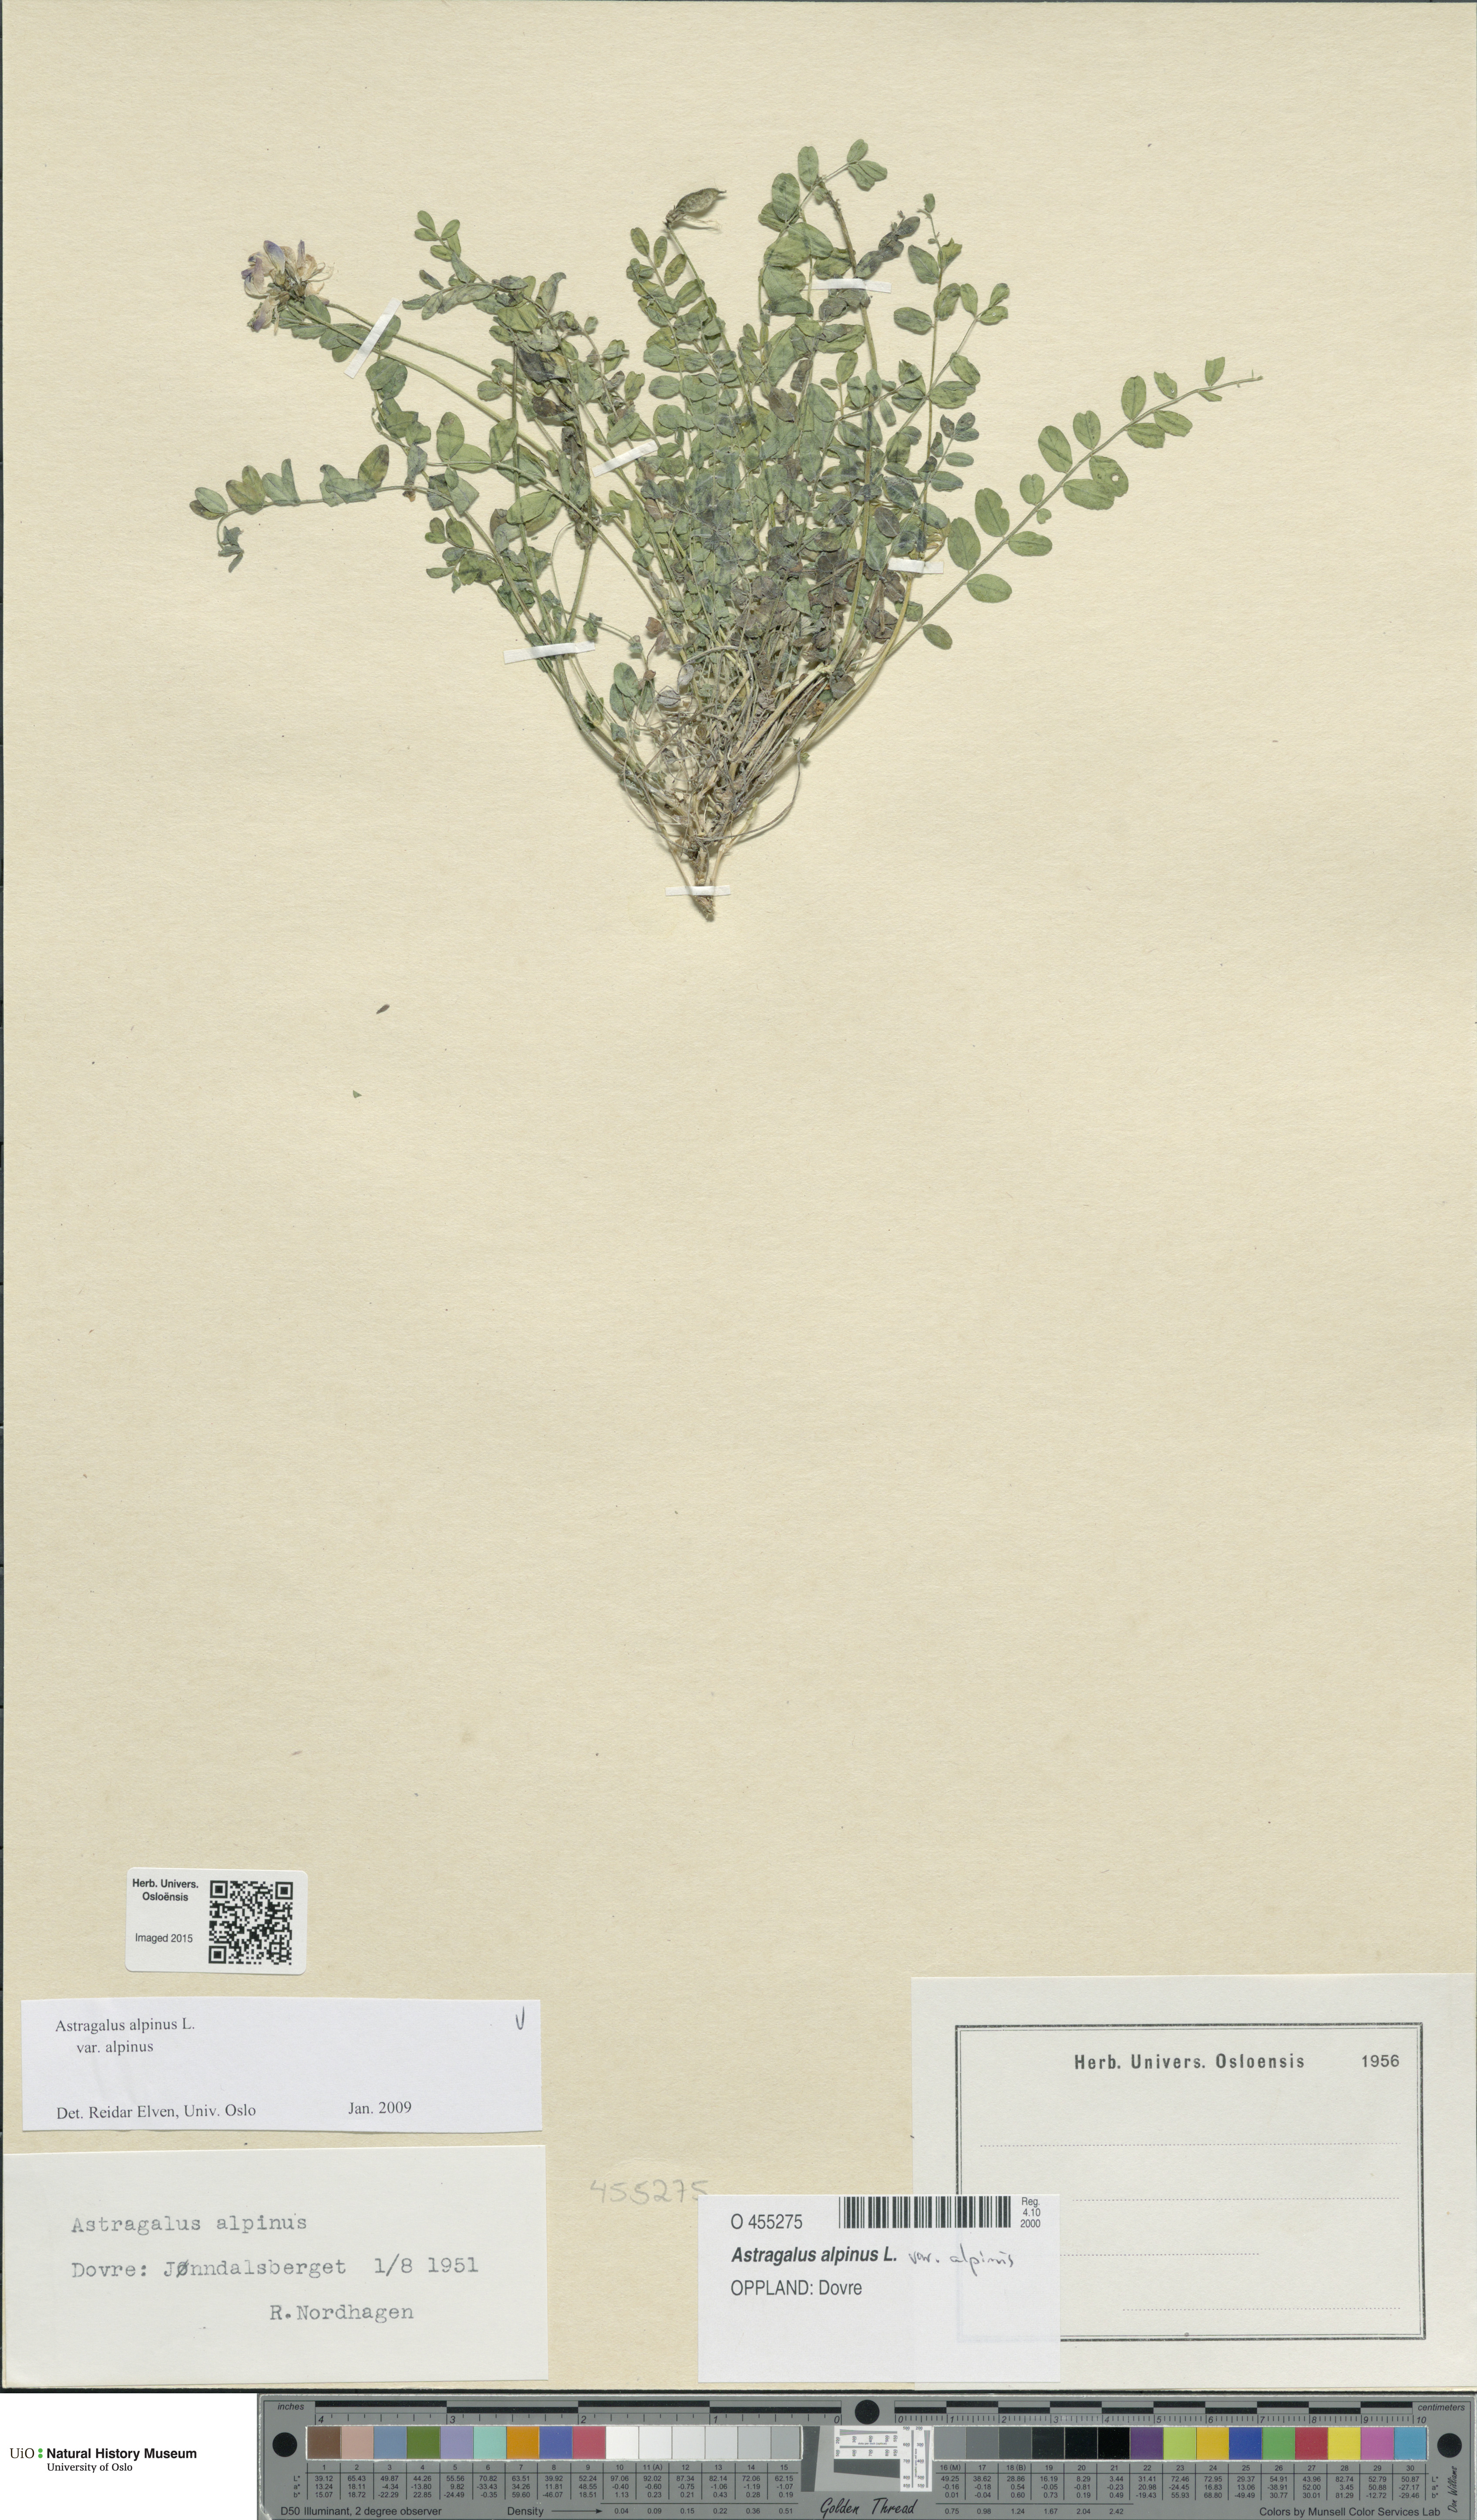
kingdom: Plantae
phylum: Tracheophyta
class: Magnoliopsida
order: Fabales
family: Fabaceae
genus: Astragalus
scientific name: Astragalus alpinus
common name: Alpine milk-vetch
